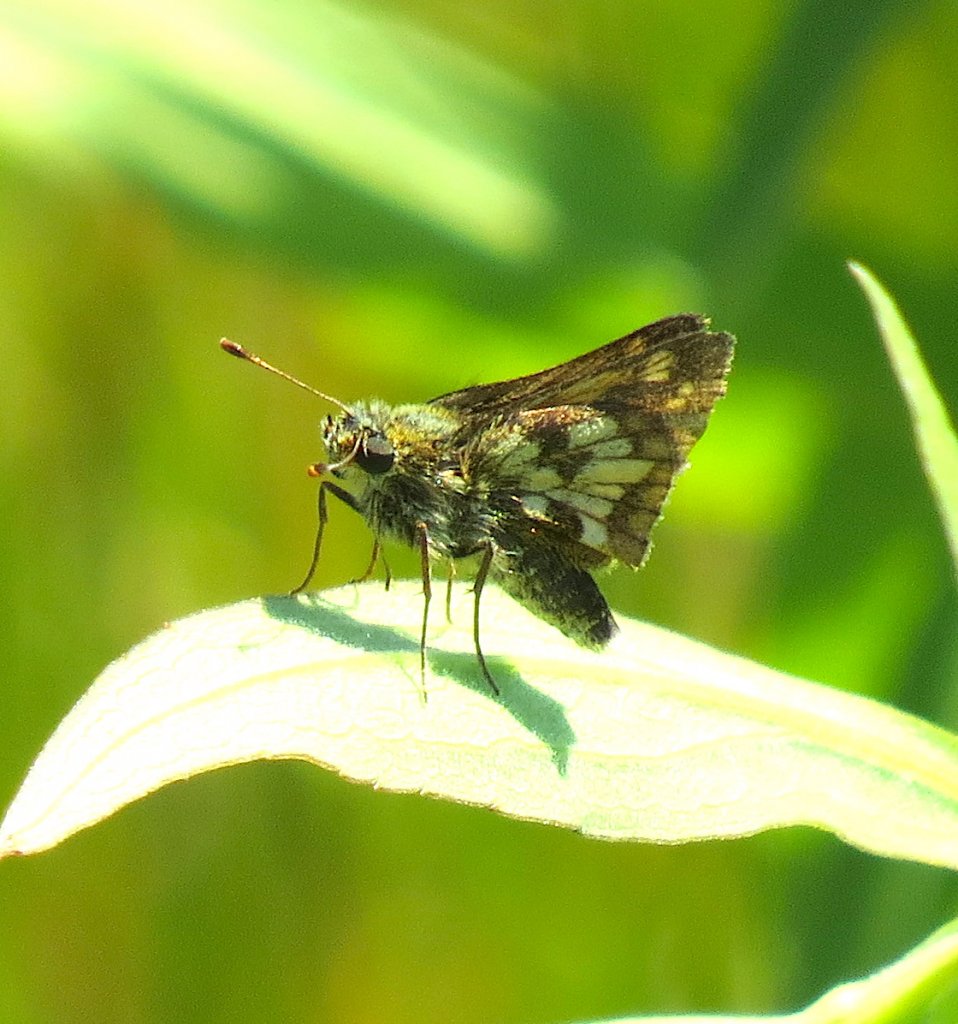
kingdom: Animalia
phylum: Arthropoda
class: Insecta
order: Lepidoptera
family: Hesperiidae
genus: Polites
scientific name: Polites coras
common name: Peck's Skipper
